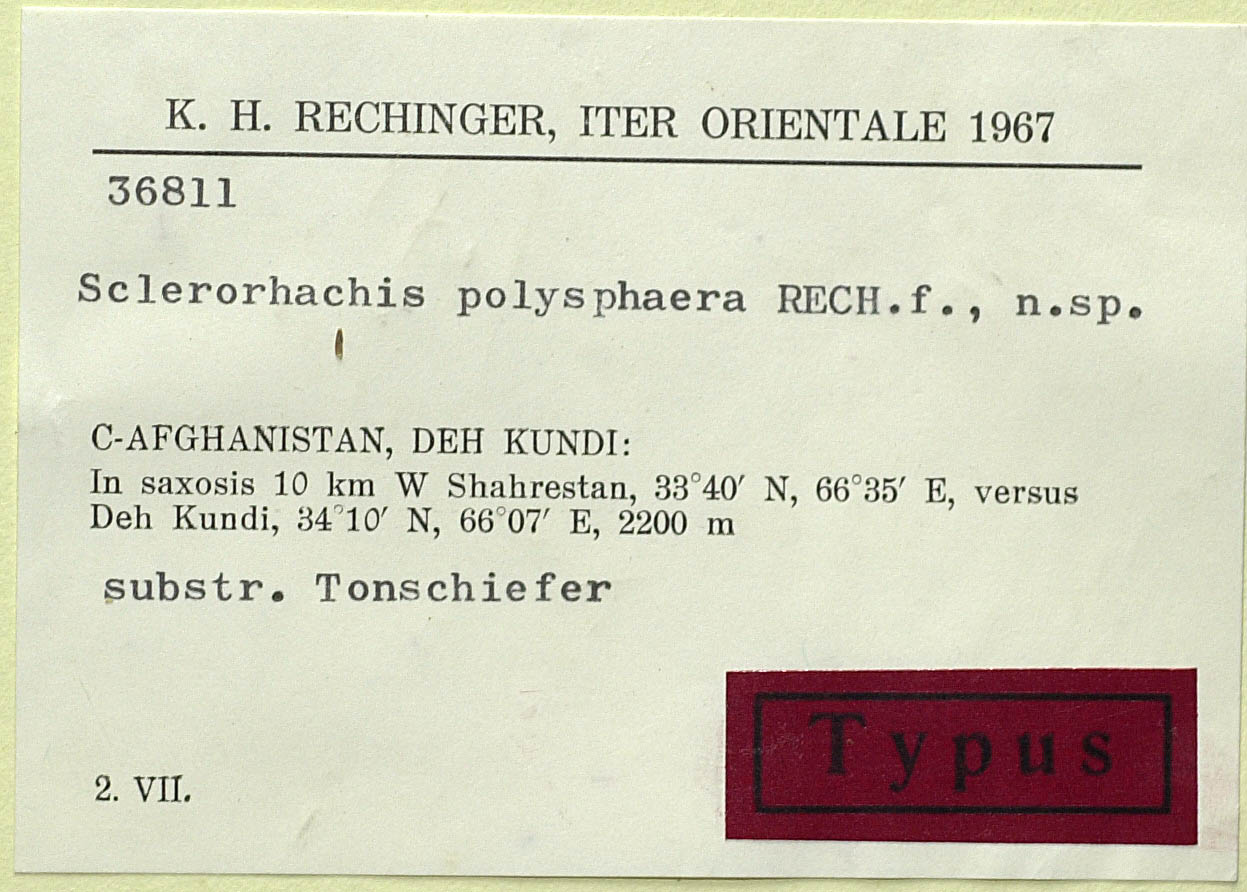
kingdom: Plantae
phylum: Tracheophyta
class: Magnoliopsida
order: Asterales
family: Asteraceae
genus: Sclerorhachis
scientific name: Sclerorhachis polysphaera
